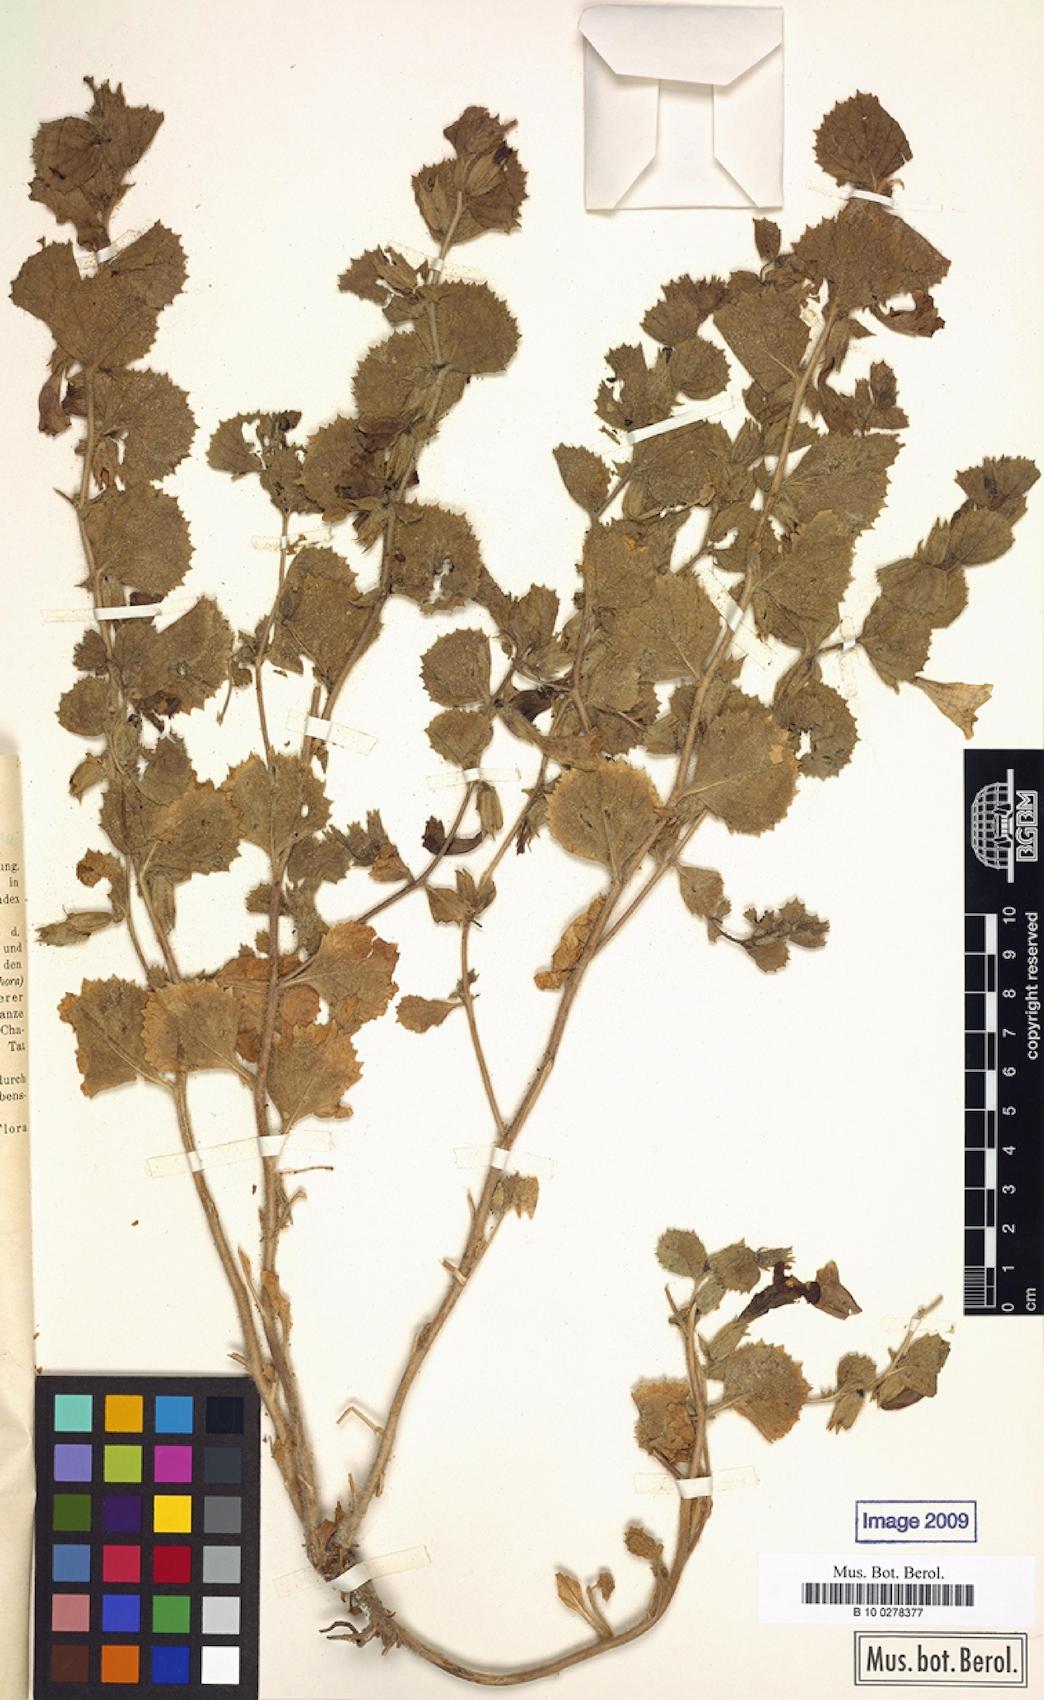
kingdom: Plantae
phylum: Tracheophyta
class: Magnoliopsida
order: Lamiales
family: Rehmanniaceae
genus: Triaenophora
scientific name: Triaenophora bucharica
